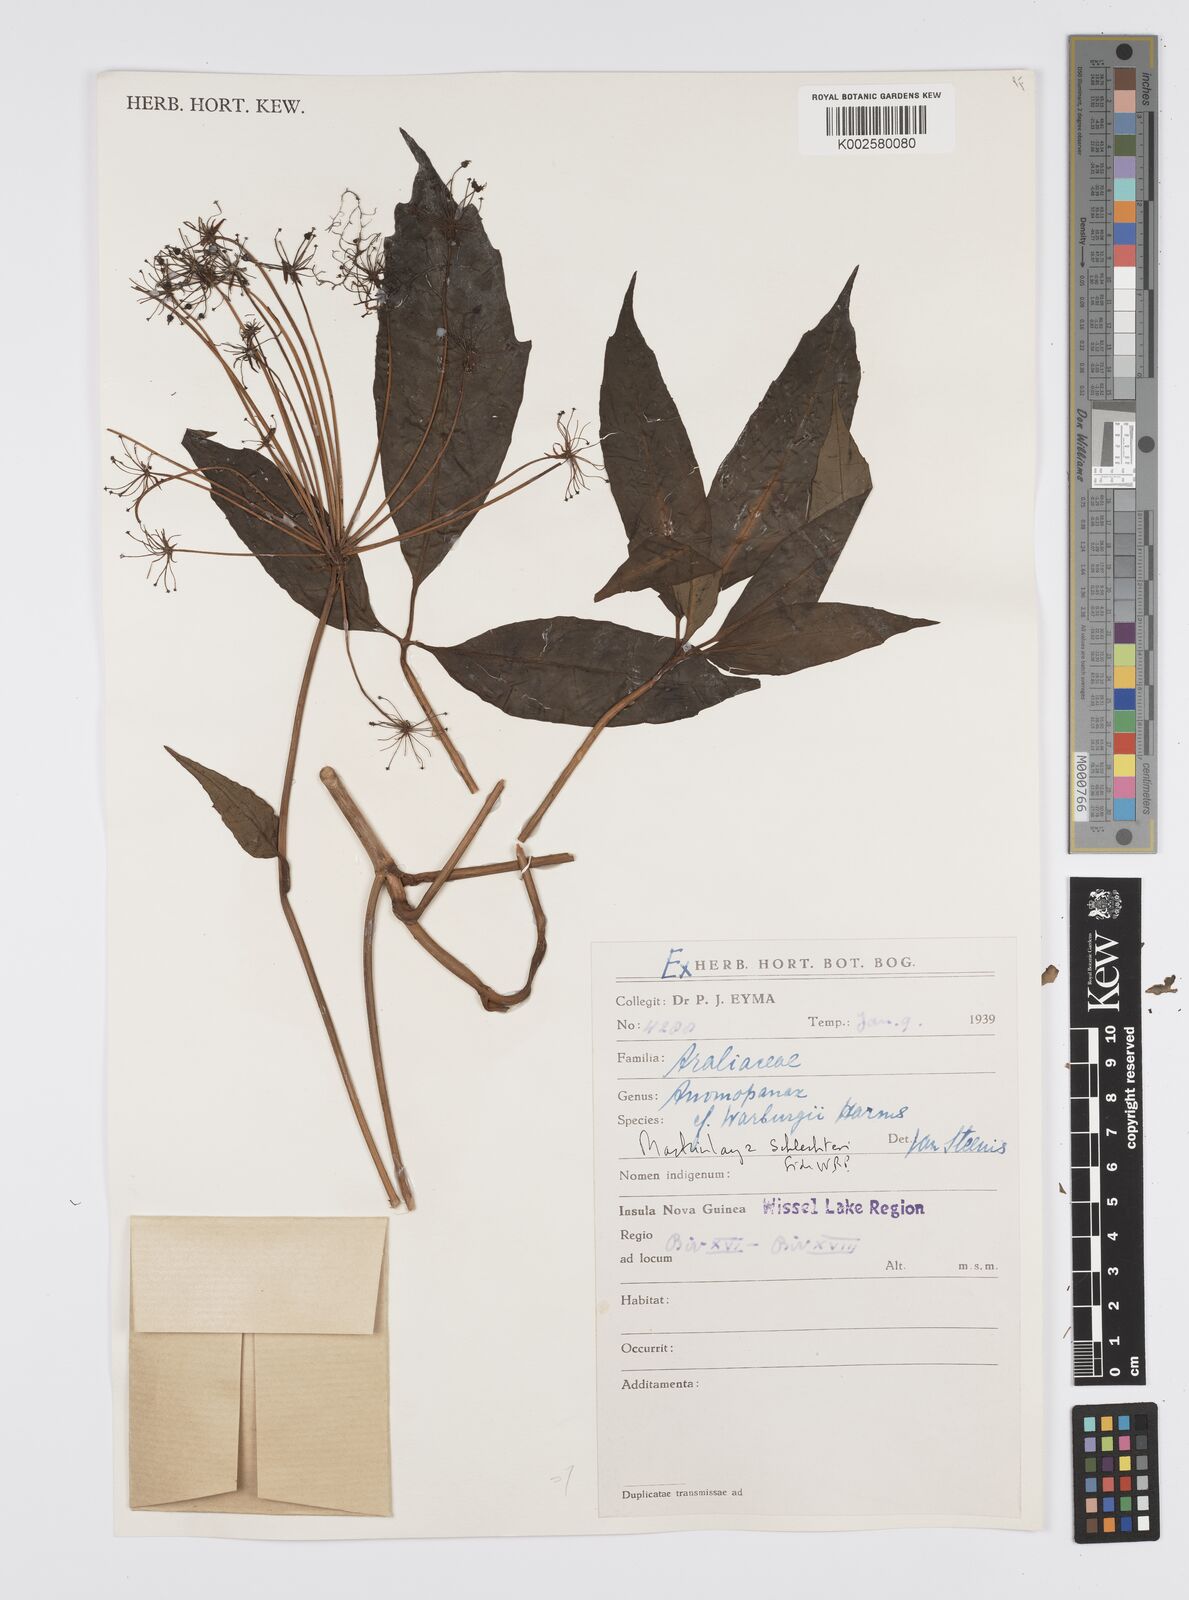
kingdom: Plantae
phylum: Tracheophyta
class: Magnoliopsida
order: Apiales
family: Apiaceae
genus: Mackinlaya
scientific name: Mackinlaya schlechteri
